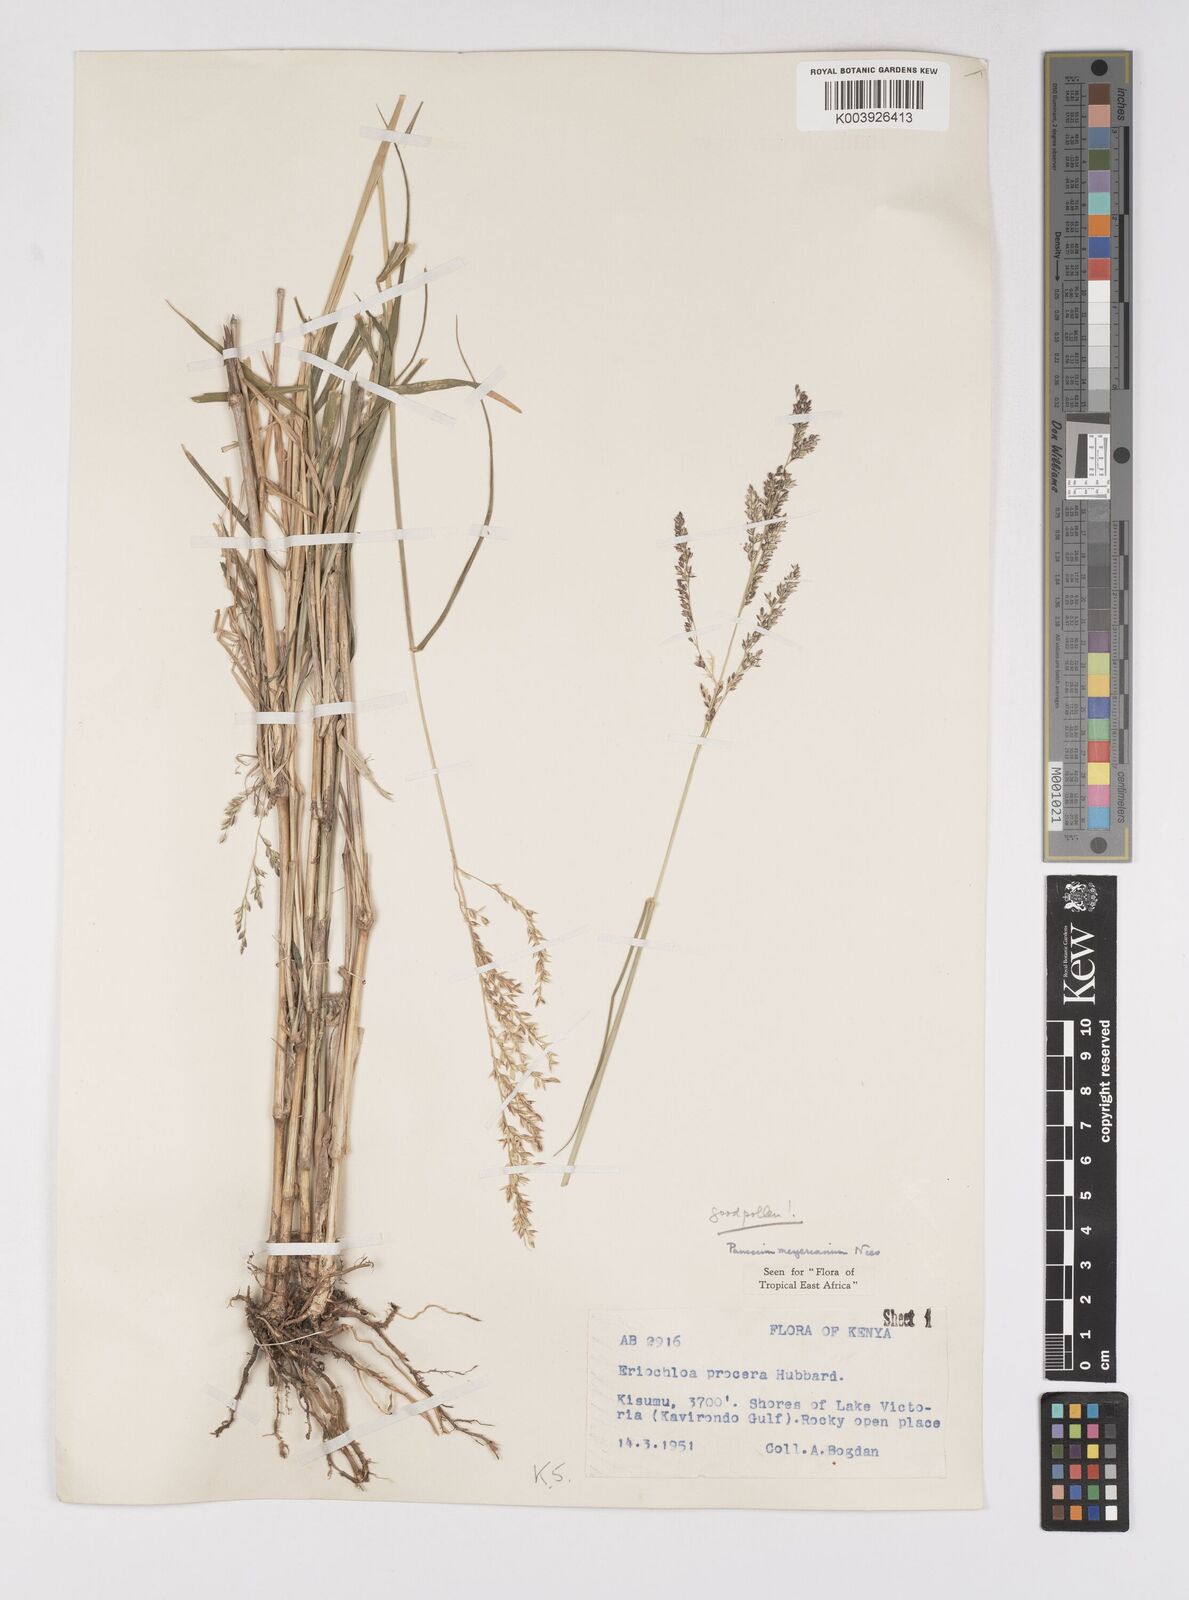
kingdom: Plantae
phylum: Tracheophyta
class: Liliopsida
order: Poales
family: Poaceae
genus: Eriochloa
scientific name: Eriochloa meyeriana
